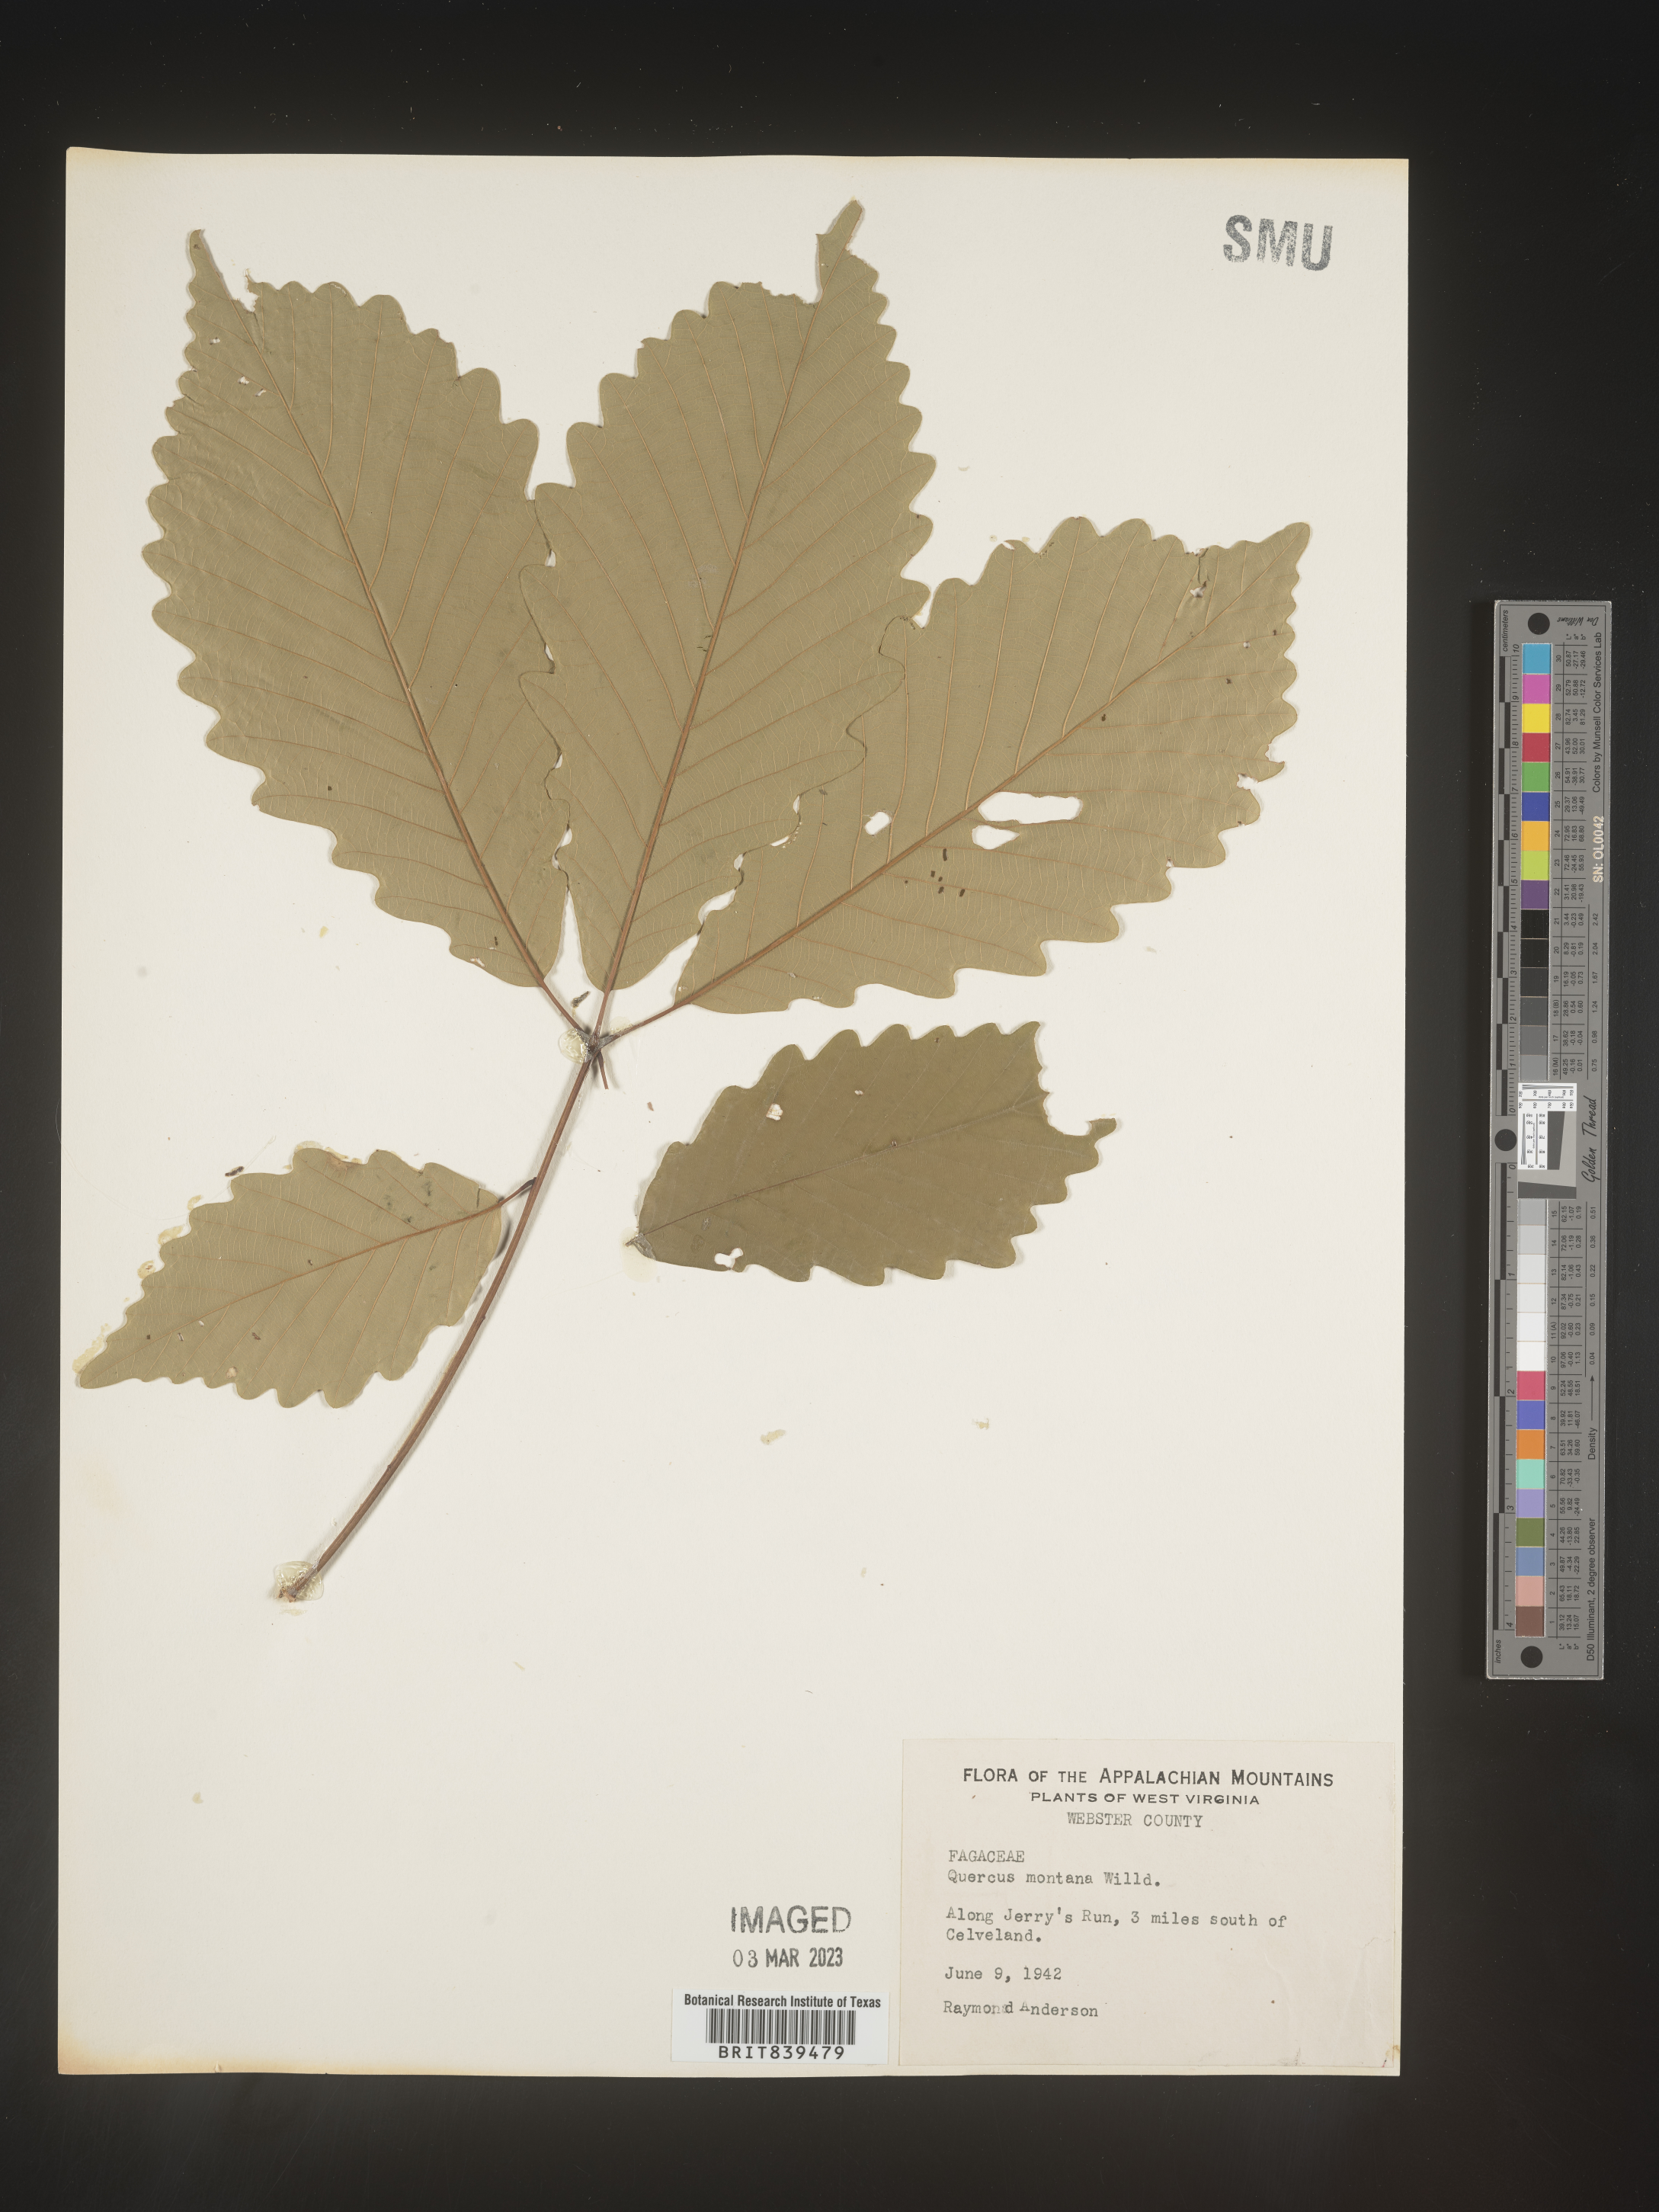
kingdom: Plantae
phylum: Tracheophyta
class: Magnoliopsida
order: Fagales
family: Fagaceae
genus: Quercus
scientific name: Quercus montana
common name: Chestnut oak
